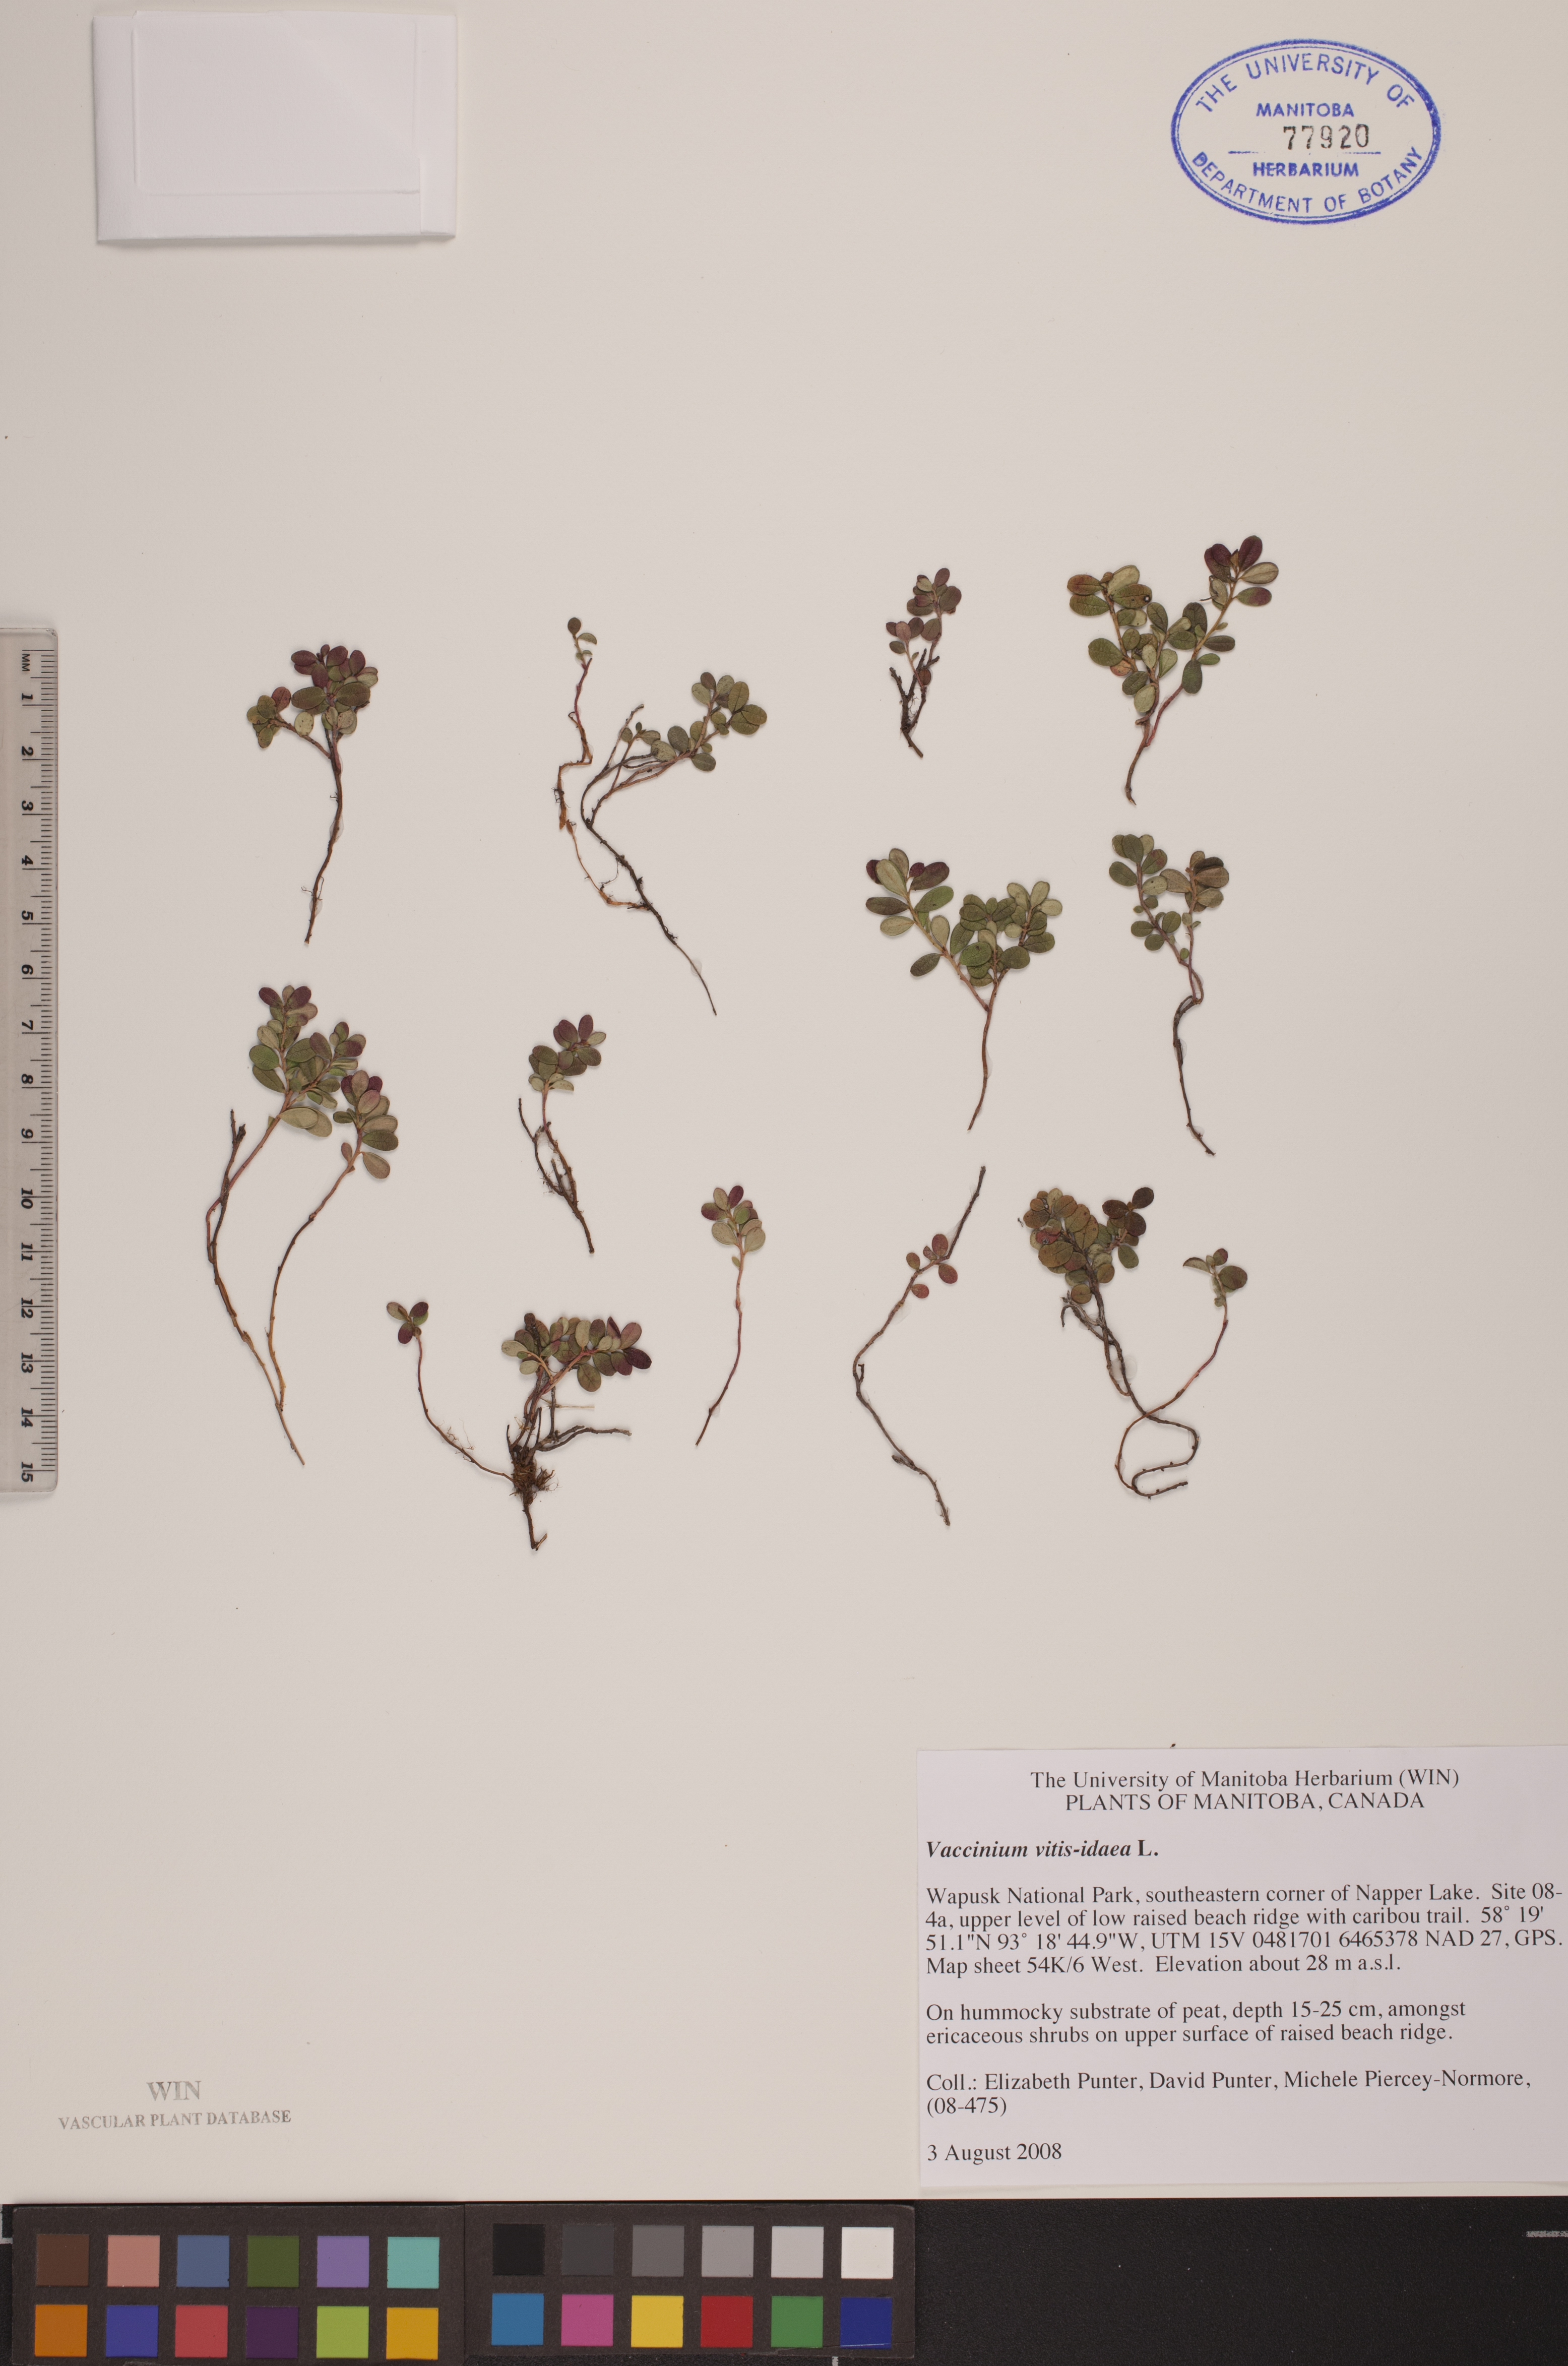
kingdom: Plantae
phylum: Tracheophyta
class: Magnoliopsida
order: Ericales
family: Ericaceae
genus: Vaccinium
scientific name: Vaccinium vitis-idaea
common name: Cowberry
